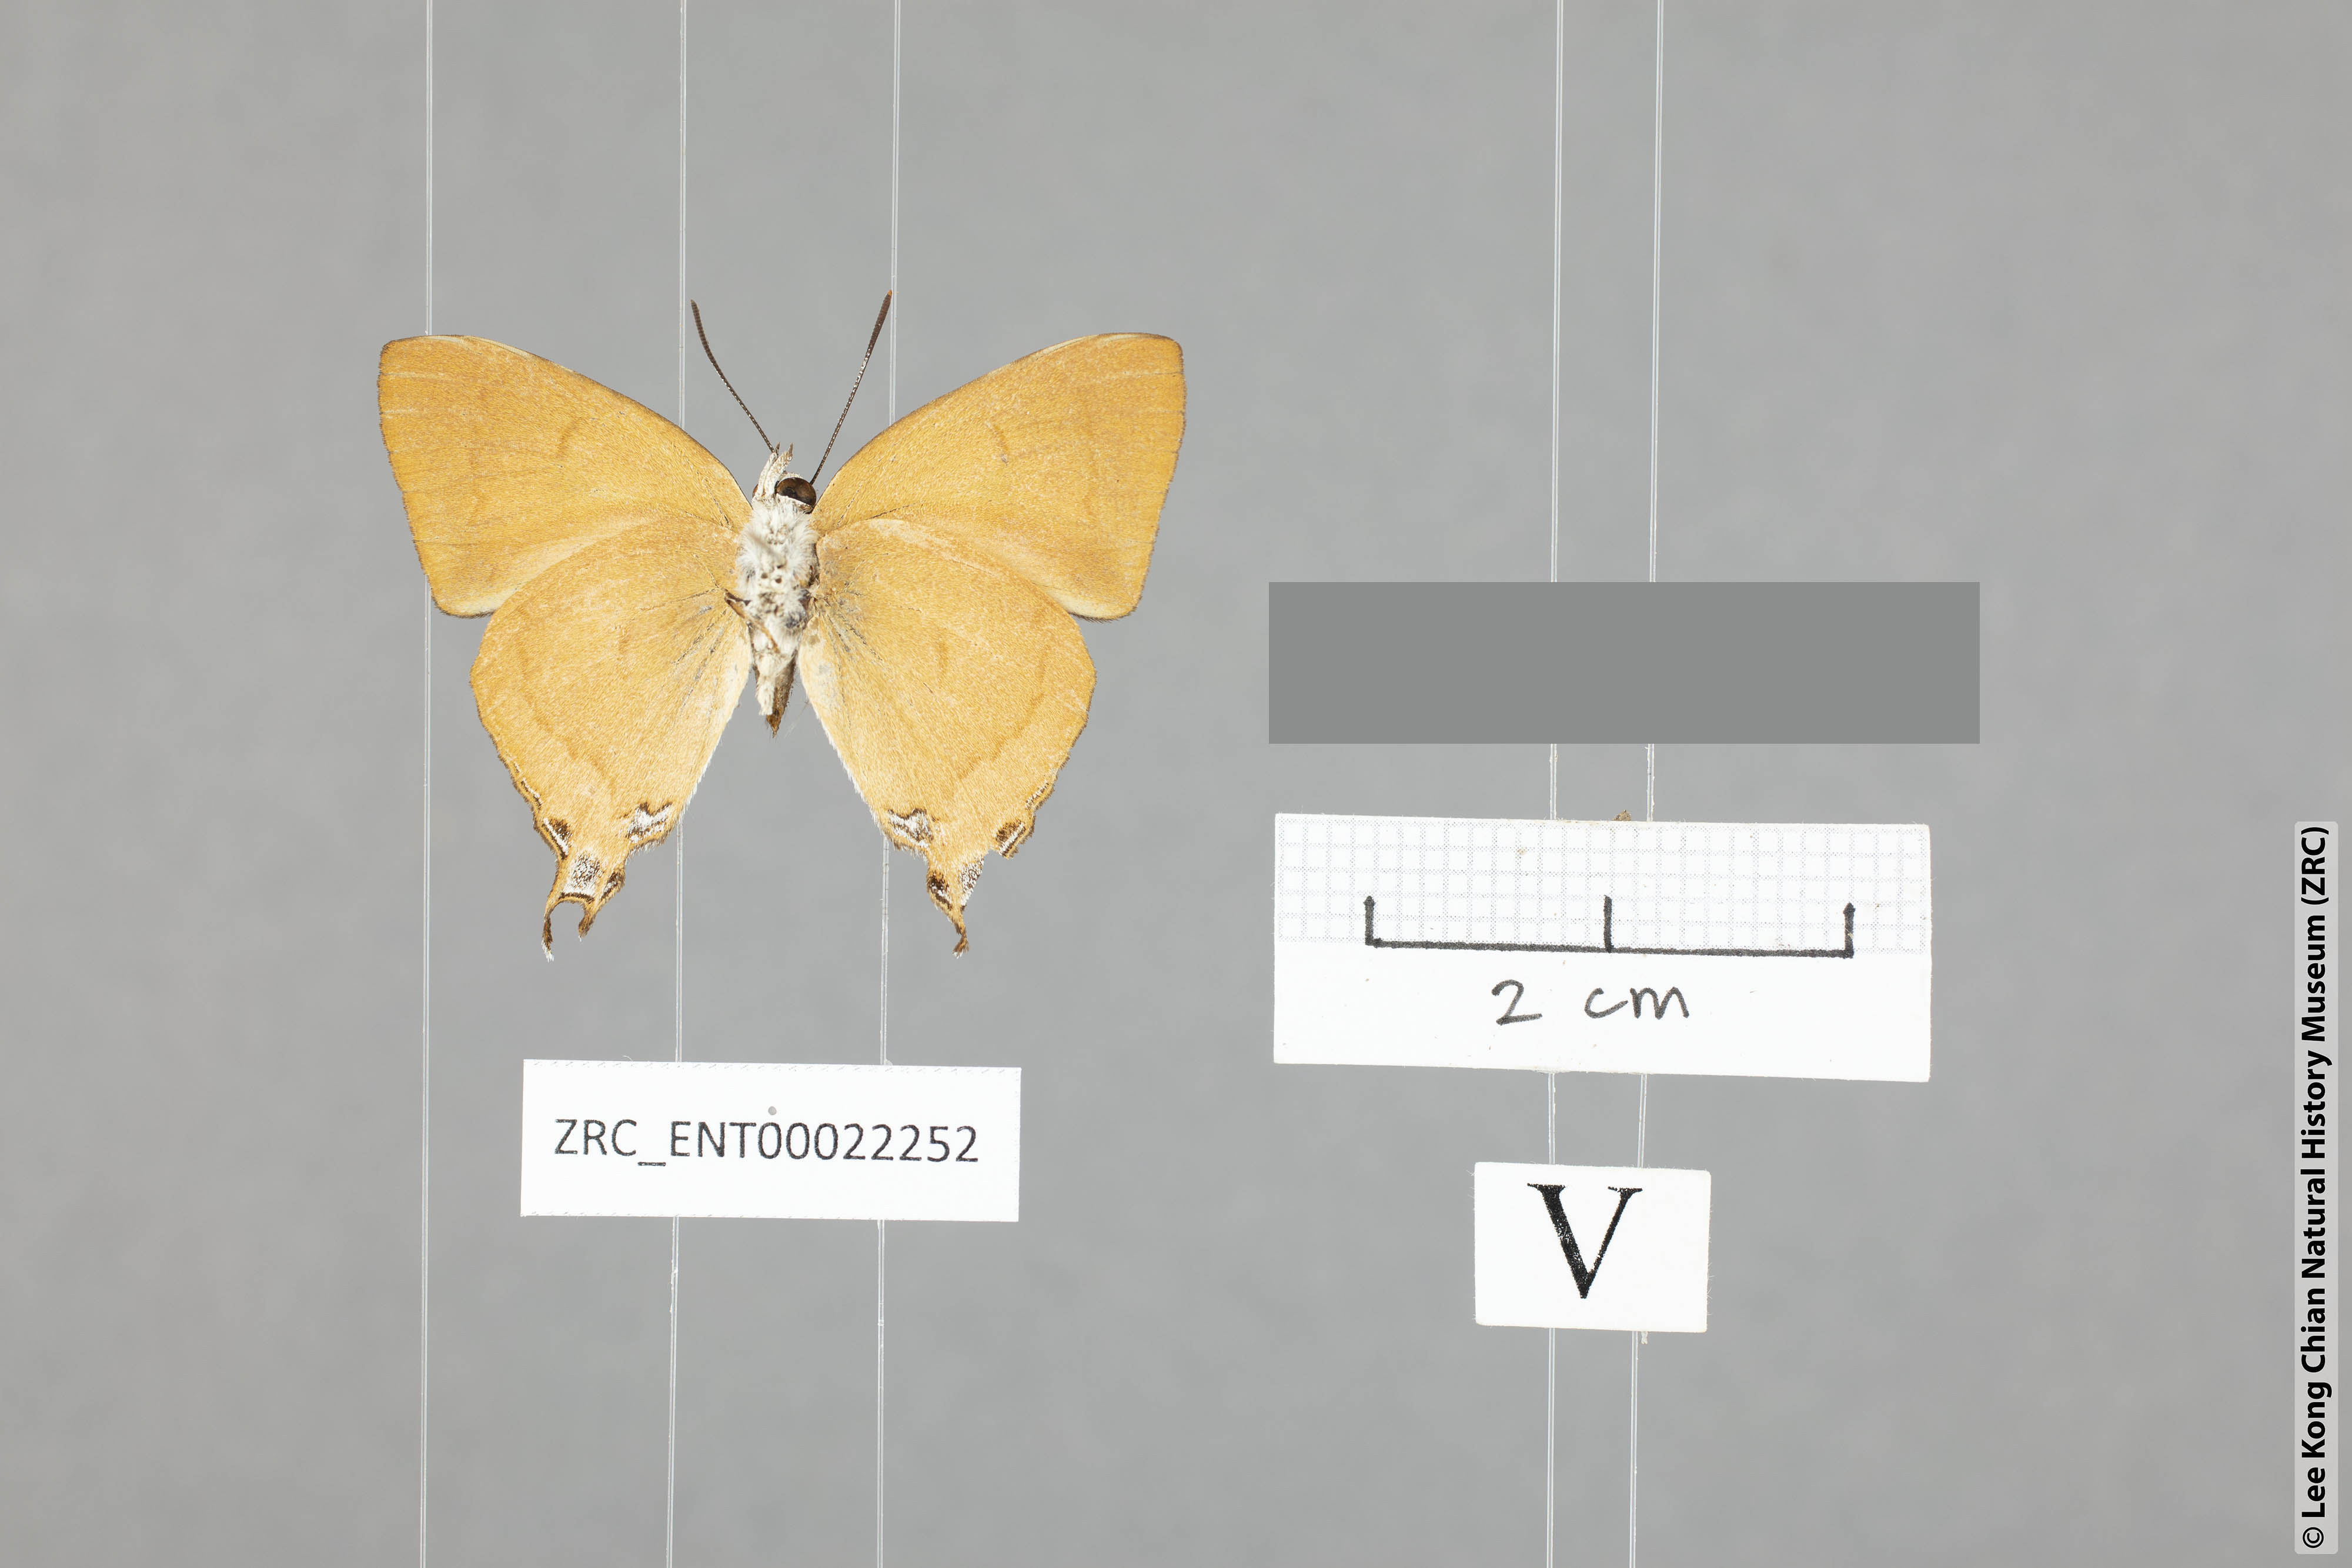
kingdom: Animalia
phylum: Arthropoda
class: Insecta
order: Lepidoptera
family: Lycaenidae
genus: Thamala
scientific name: Thamala marciana
